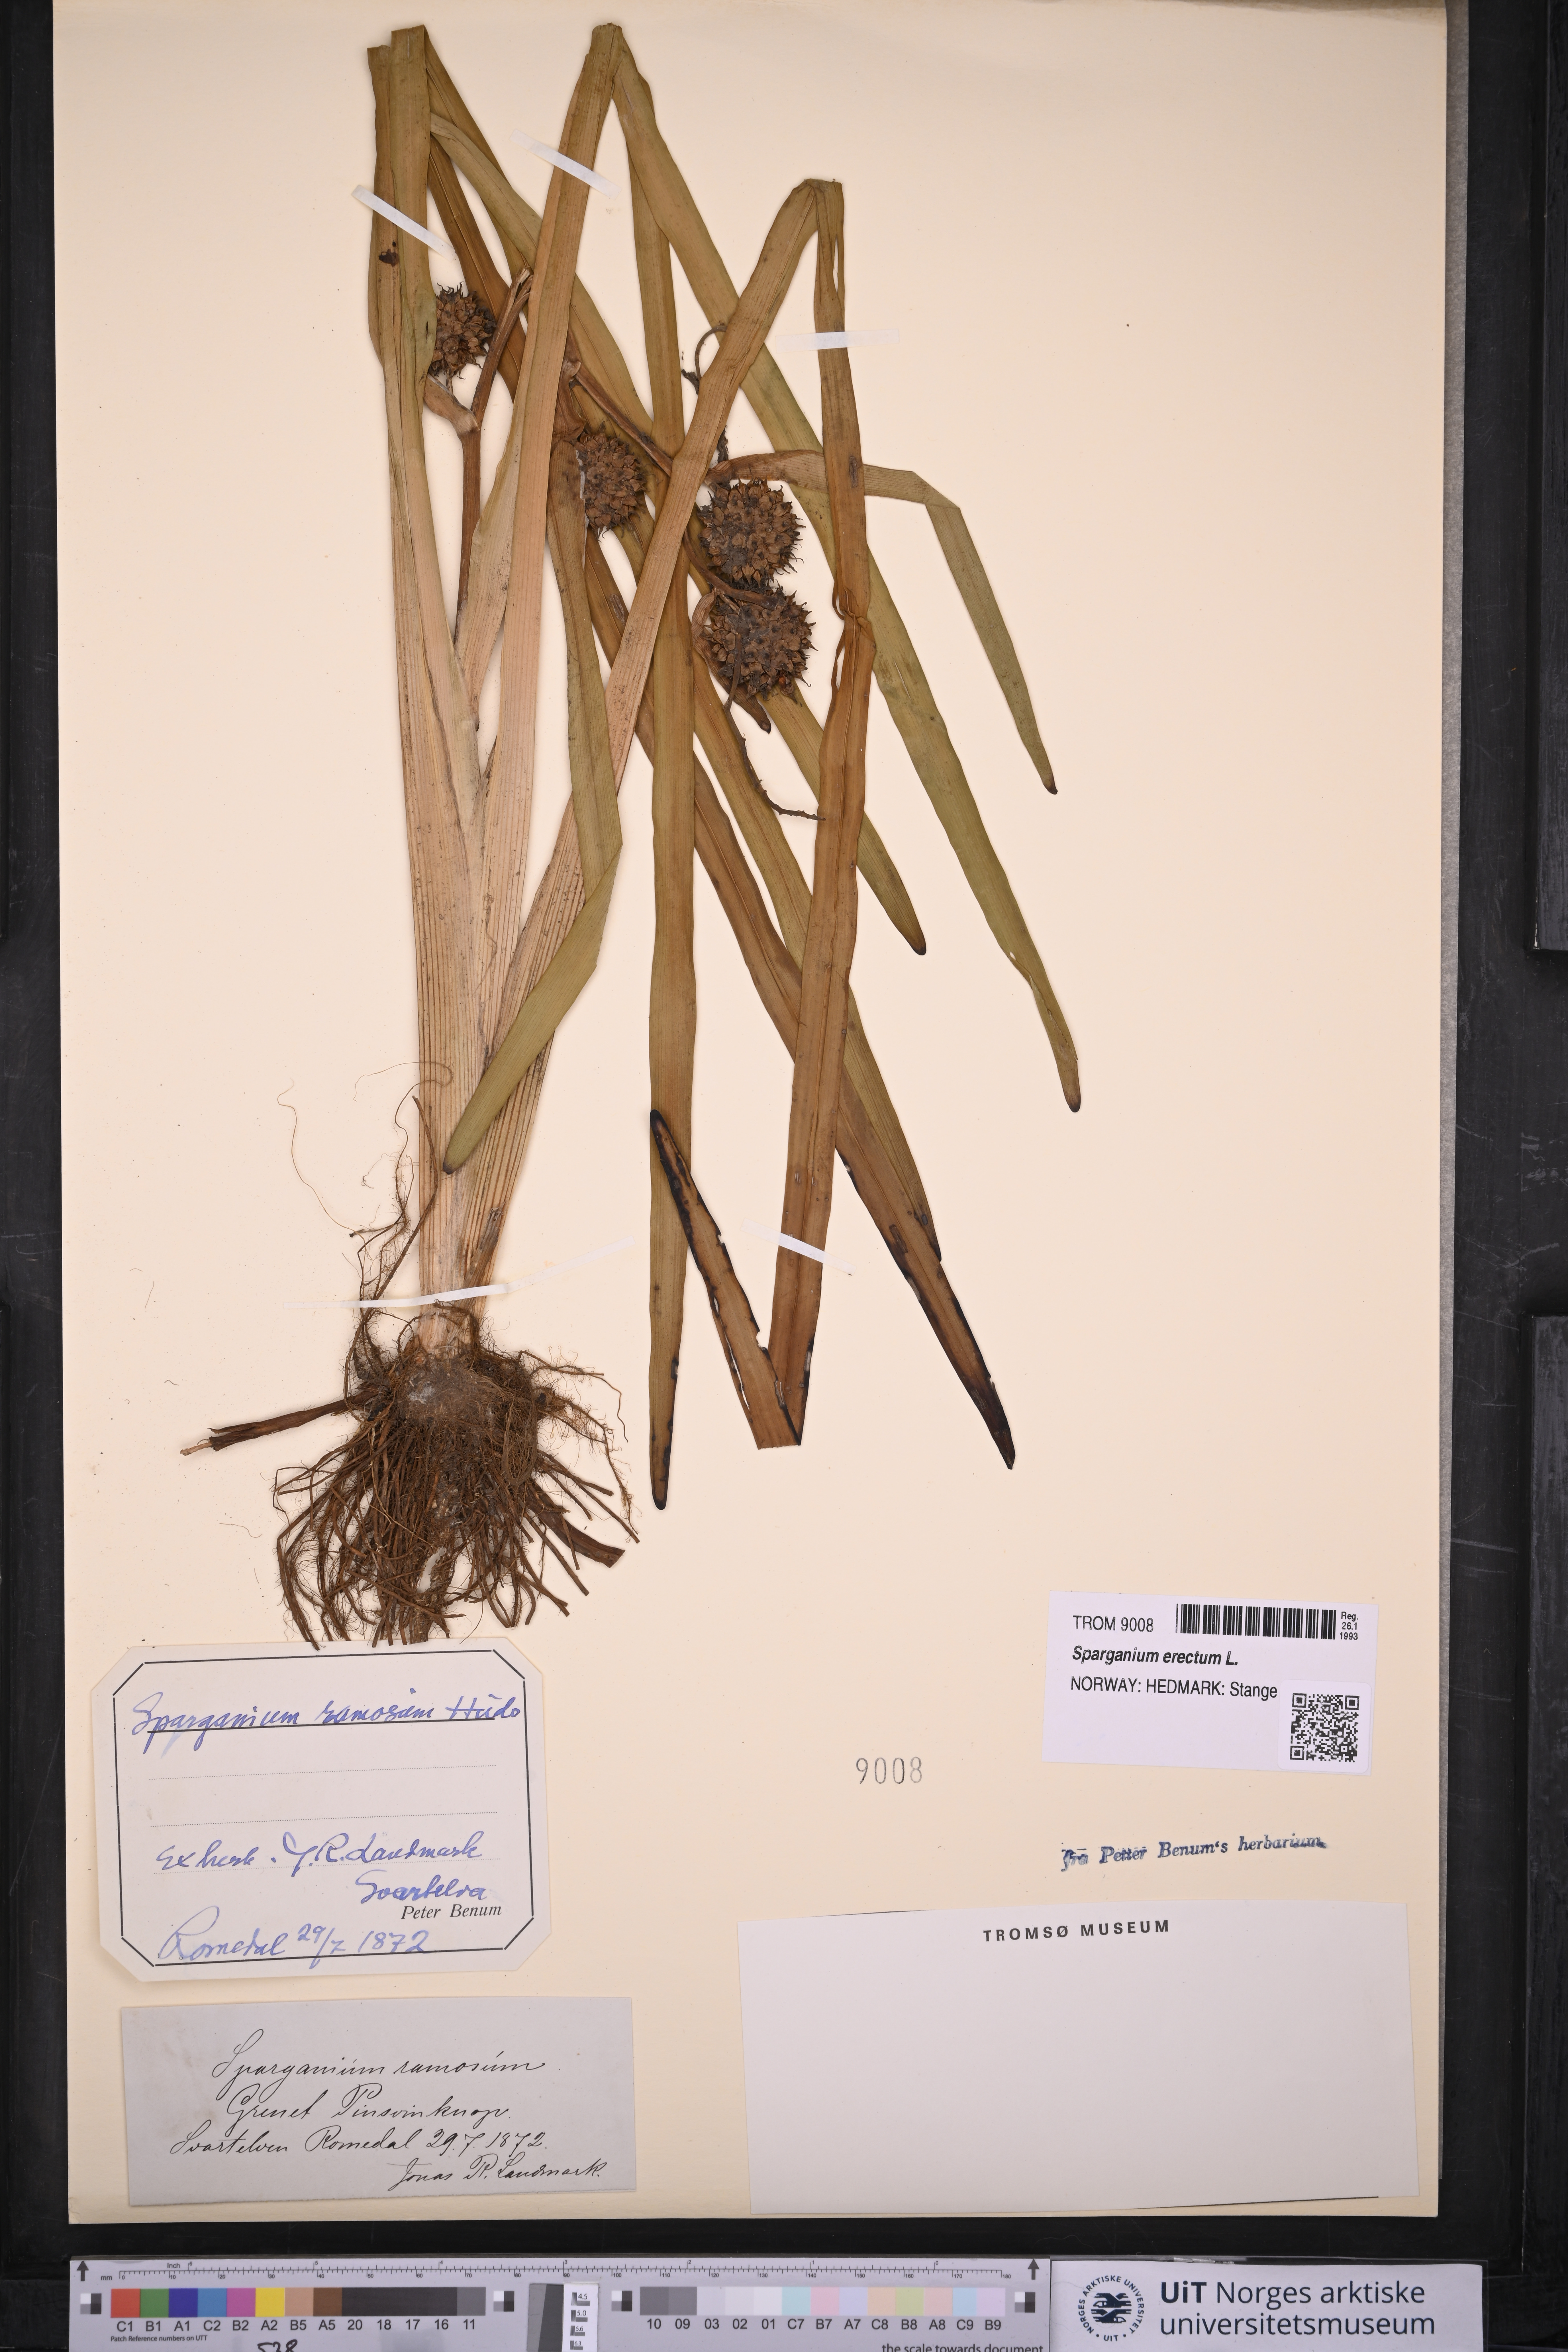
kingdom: Plantae
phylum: Tracheophyta
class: Liliopsida
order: Poales
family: Typhaceae
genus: Sparganium
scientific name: Sparganium erectum
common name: Branched bur-reed
